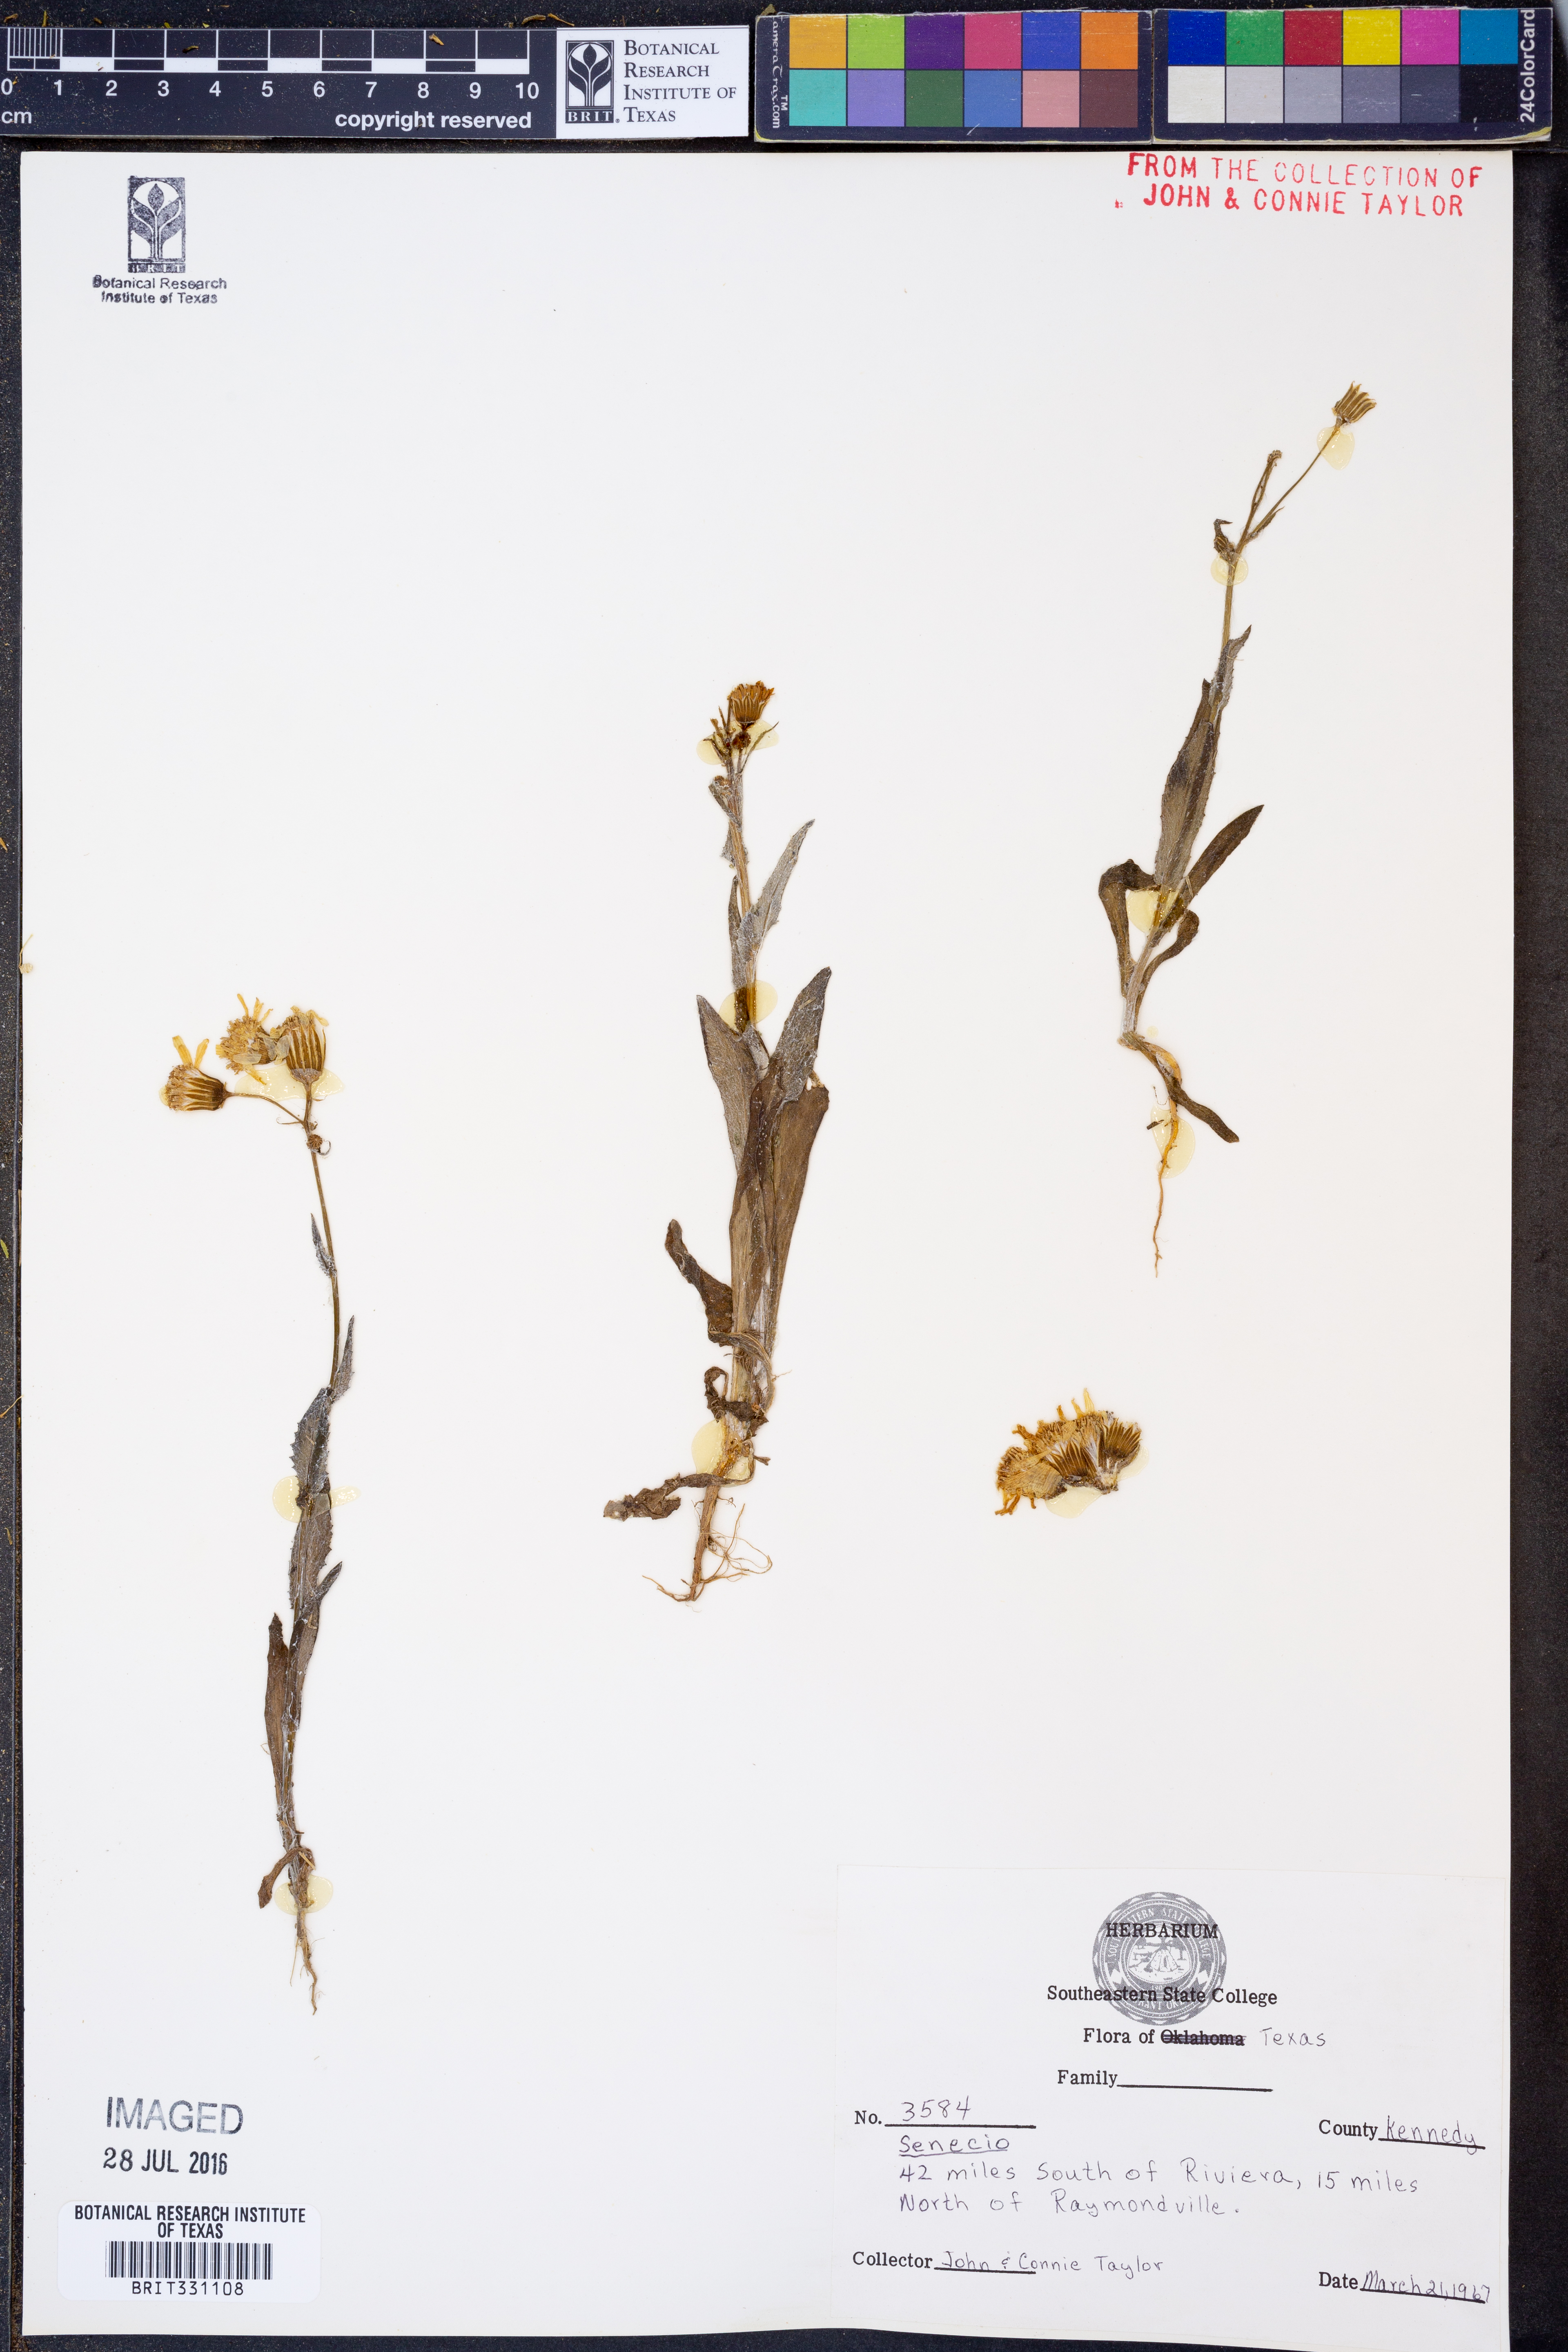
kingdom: Plantae
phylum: Tracheophyta
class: Magnoliopsida
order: Asterales
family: Asteraceae
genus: Senecio
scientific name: Senecio ampullaceus
